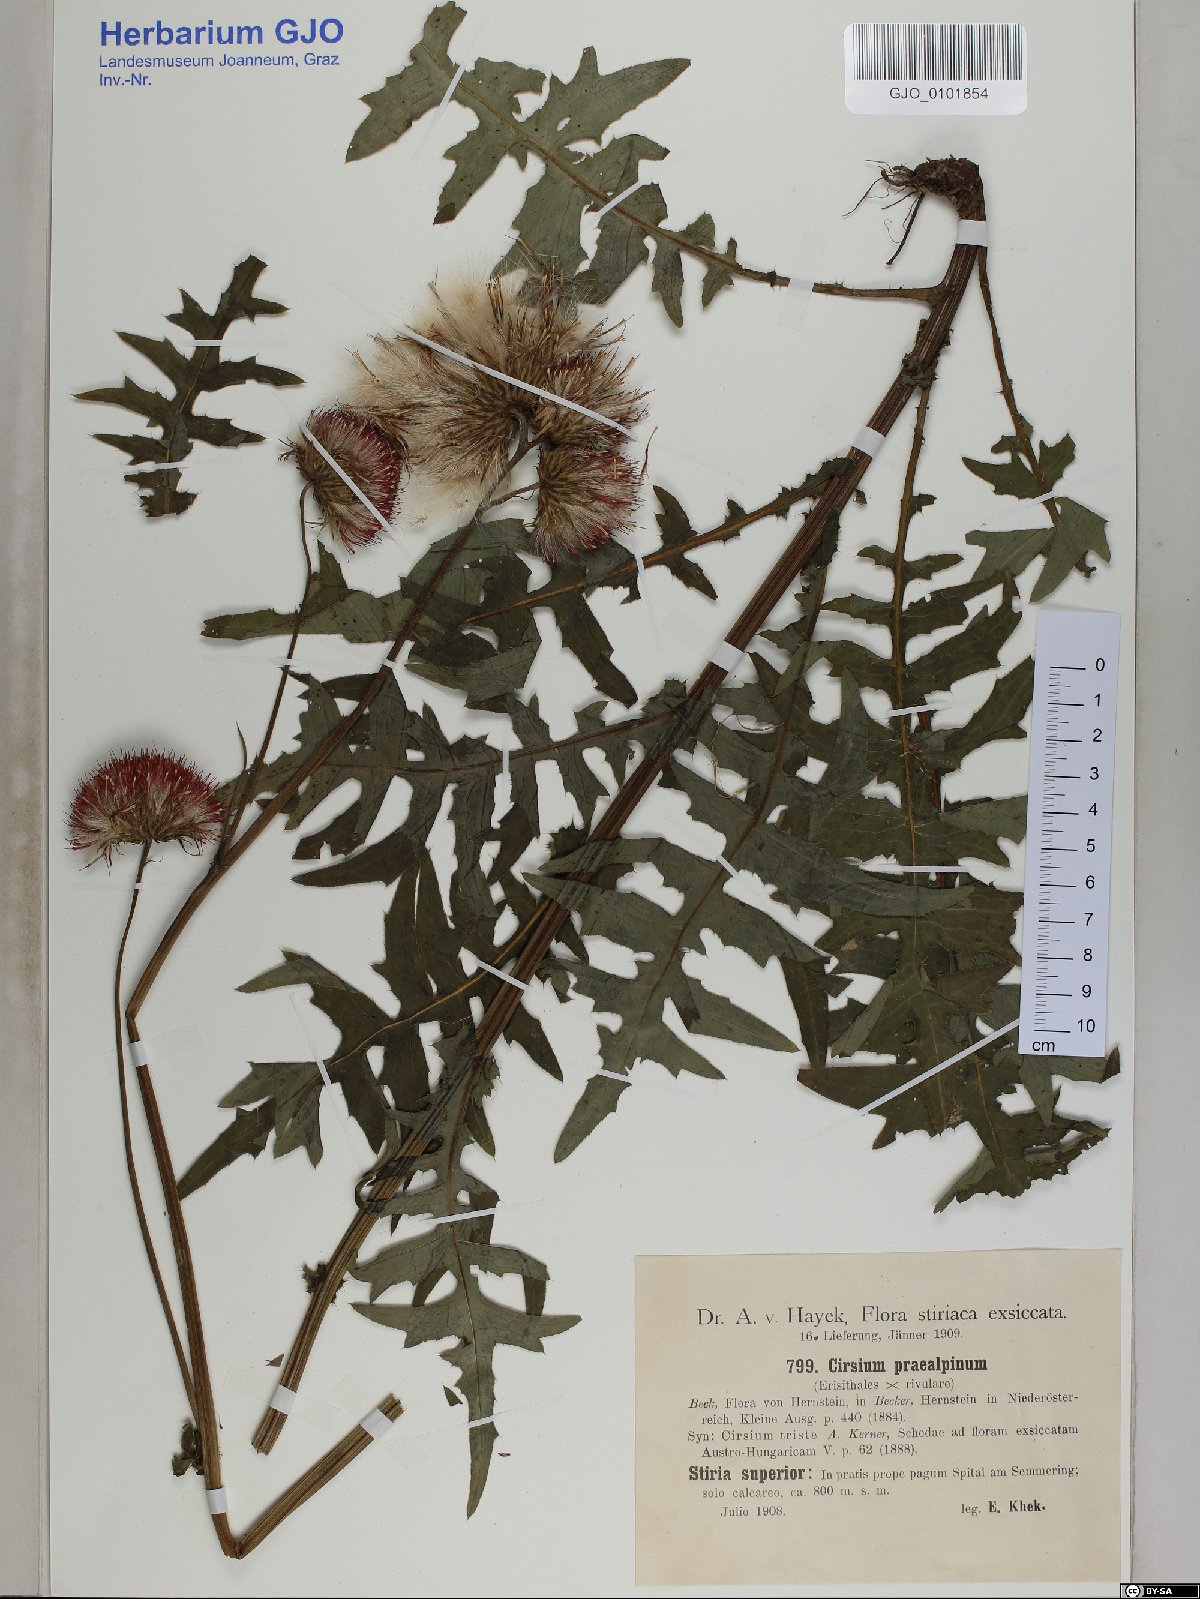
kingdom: Plantae
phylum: Tracheophyta
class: Magnoliopsida
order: Asterales
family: Asteraceae
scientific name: Asteraceae
